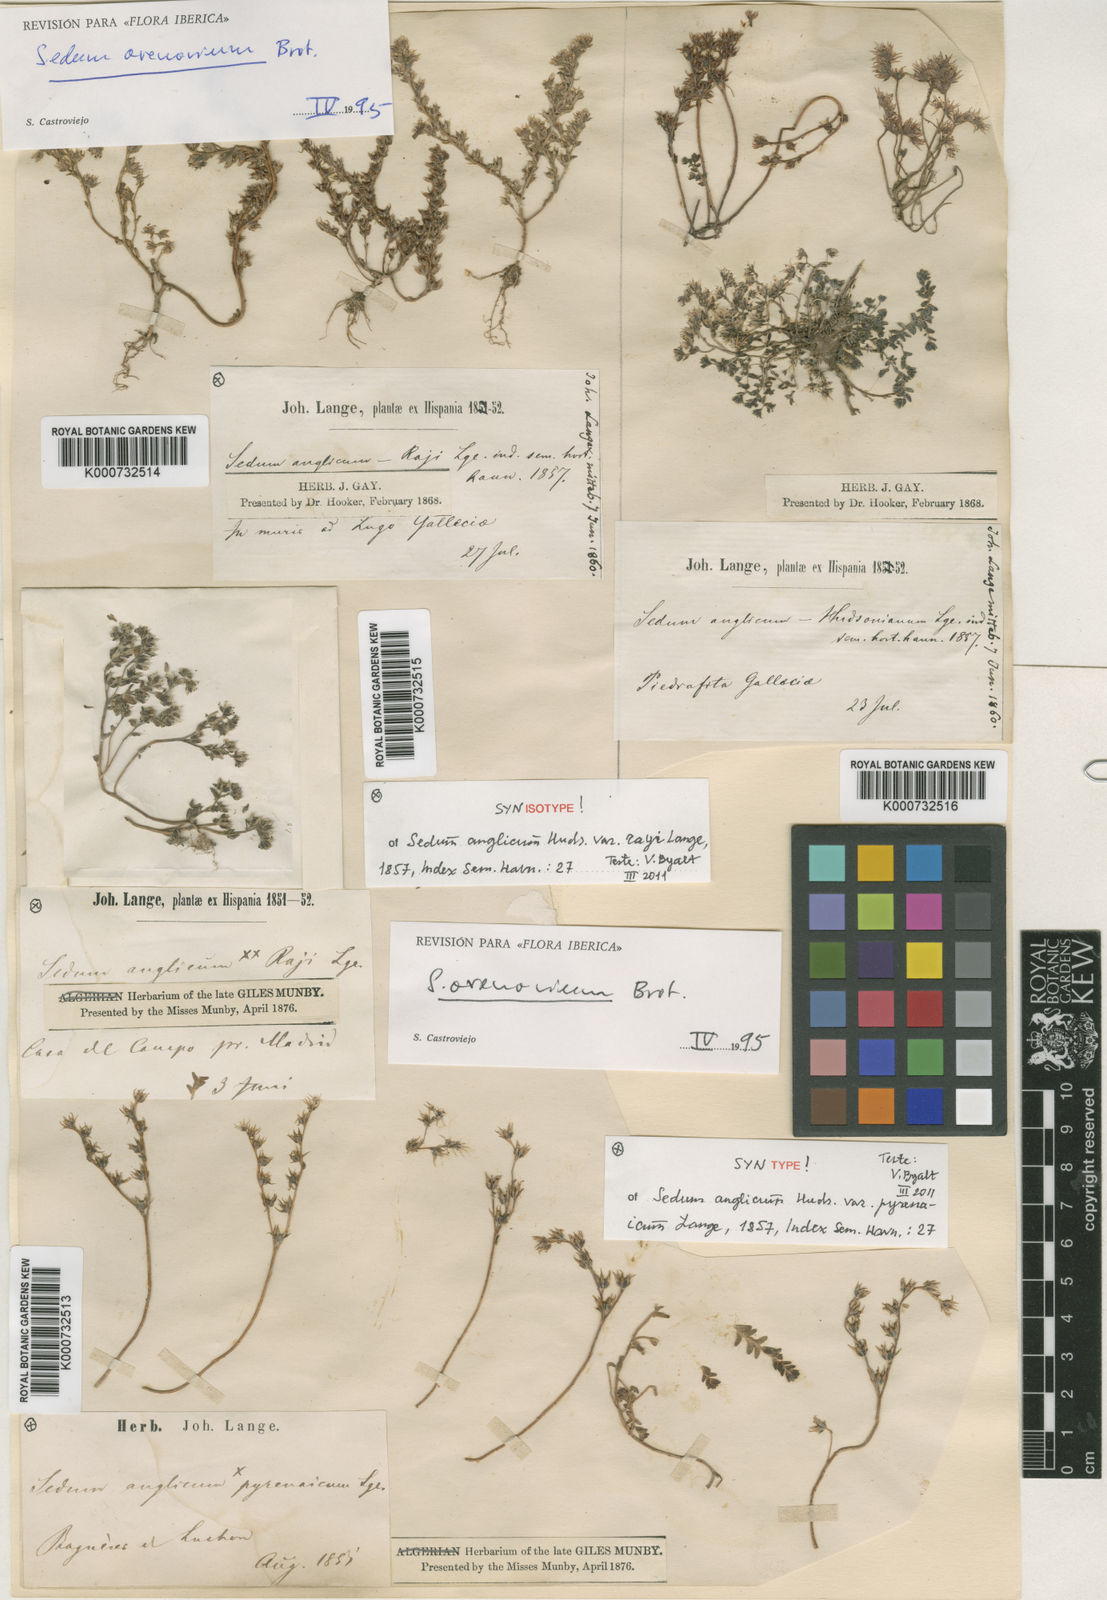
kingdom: Plantae
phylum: Tracheophyta
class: Magnoliopsida
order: Saxifragales
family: Crassulaceae
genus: Sedum
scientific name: Sedum anglicum
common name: English stonecrop
